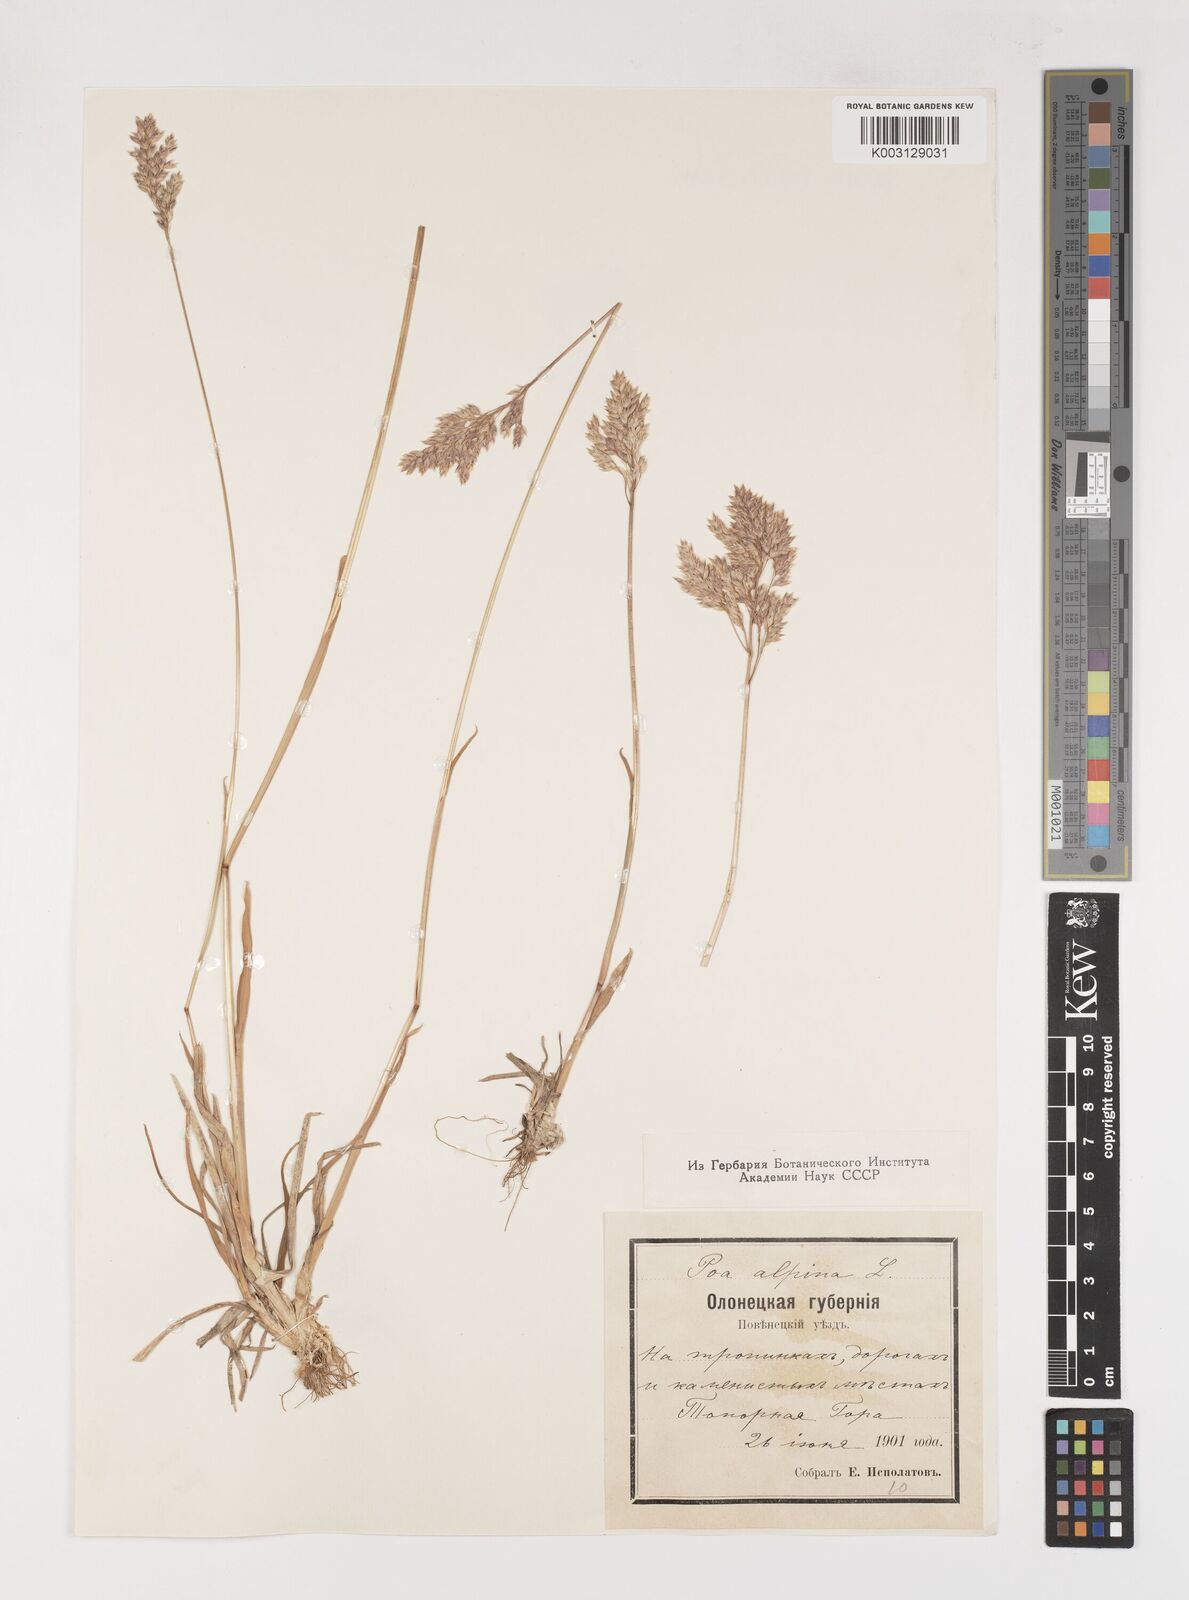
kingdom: Plantae
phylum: Tracheophyta
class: Liliopsida
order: Poales
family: Poaceae
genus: Poa
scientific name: Poa alpina
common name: Alpine bluegrass
